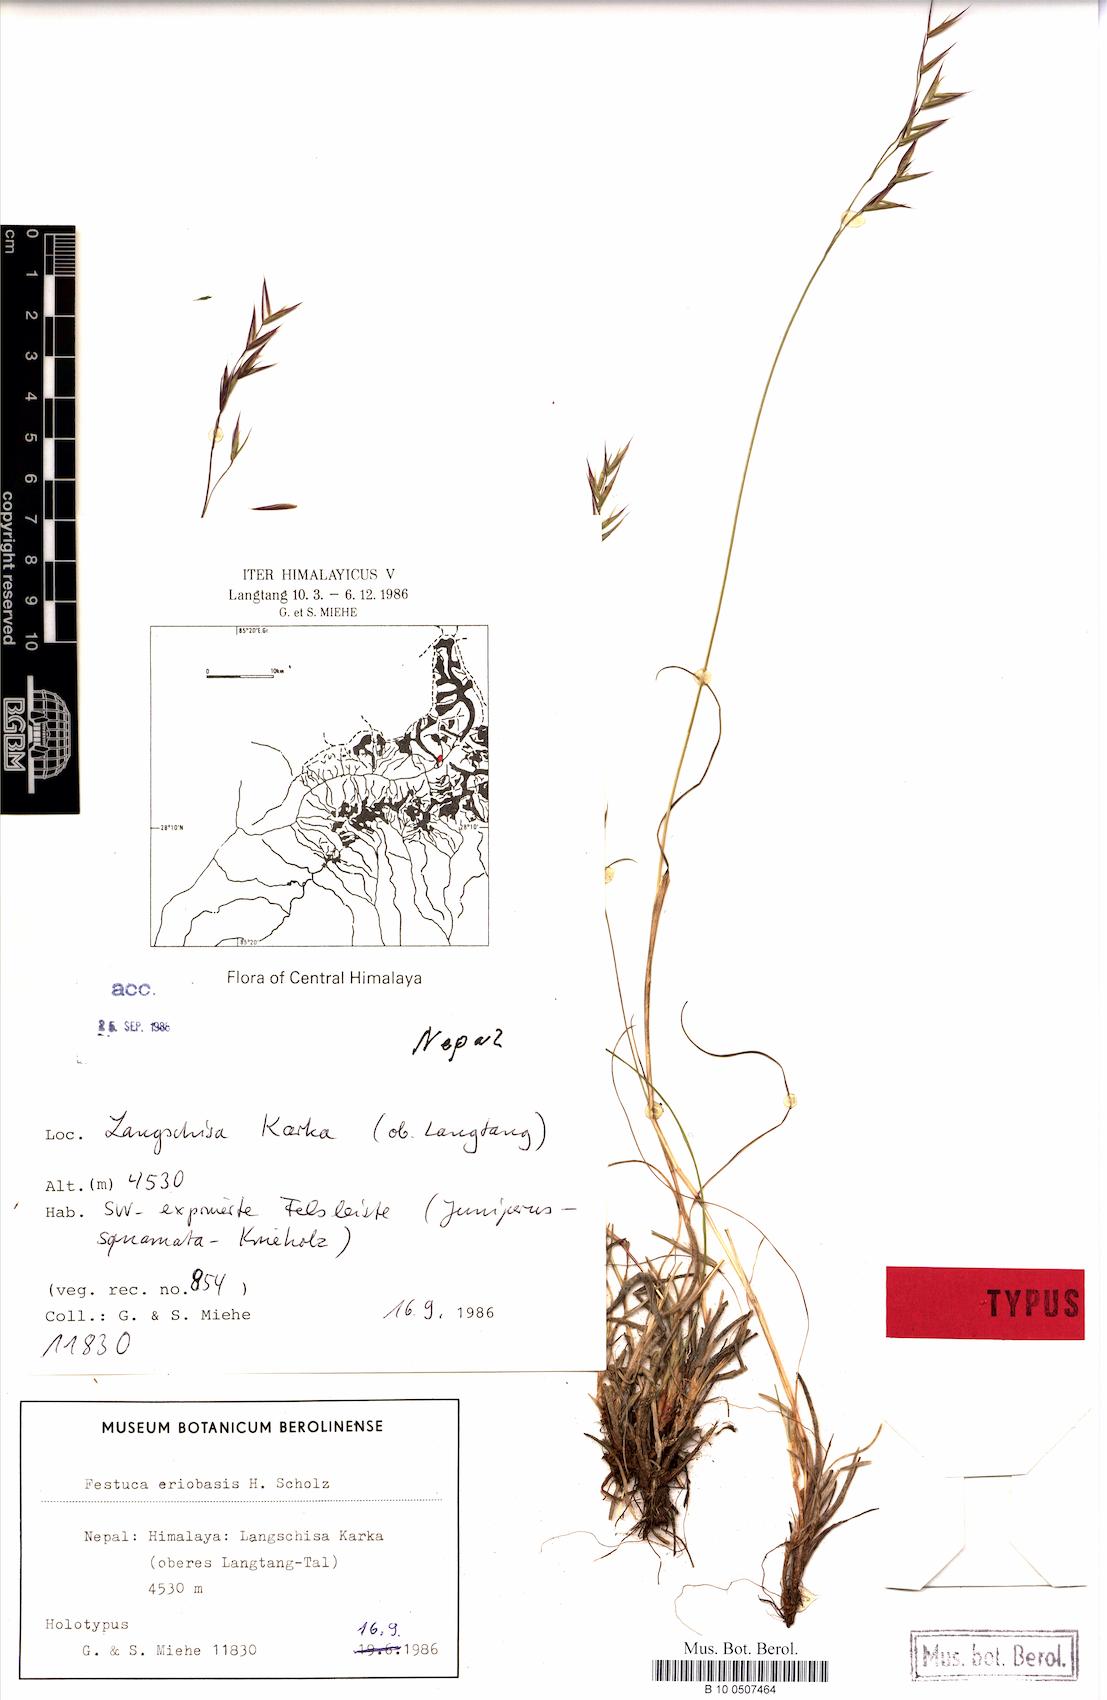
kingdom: Plantae
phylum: Tracheophyta
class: Liliopsida
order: Poales
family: Poaceae
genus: Festuca
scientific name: Festuca eriobasis
